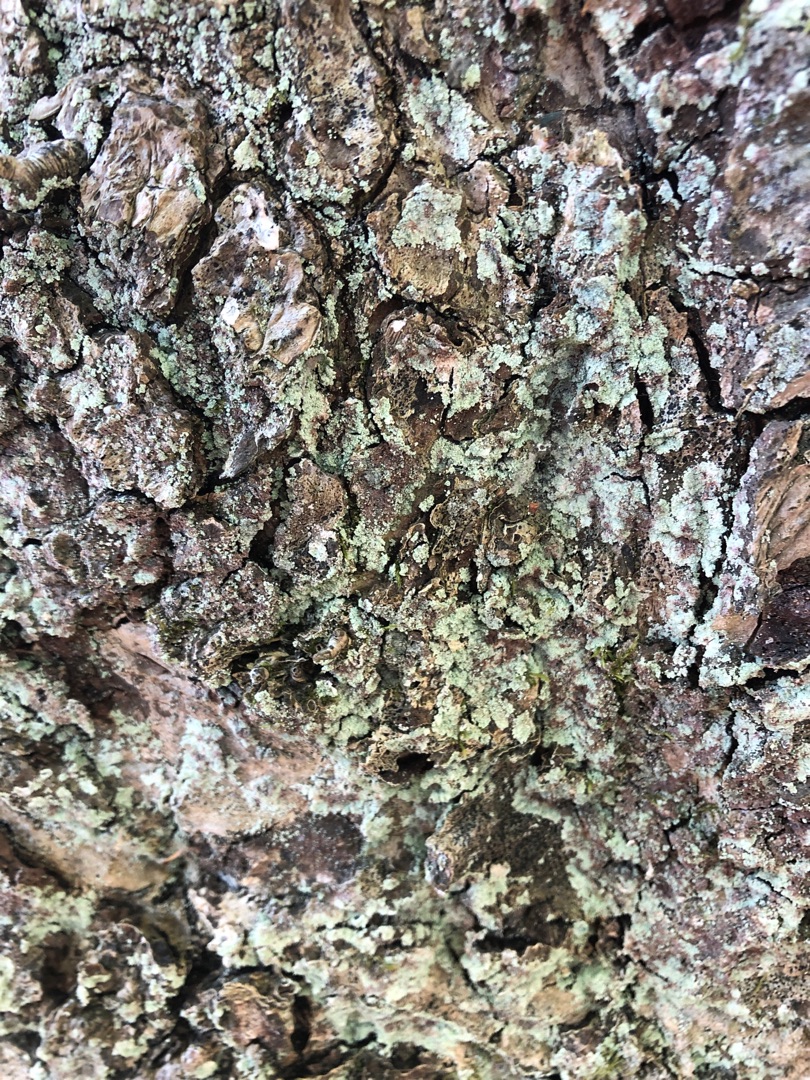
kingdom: Fungi
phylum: Ascomycota
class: Lecanoromycetes
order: Lecanorales
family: Stereocaulaceae
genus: Lepraria
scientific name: Lepraria
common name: Støvlav
